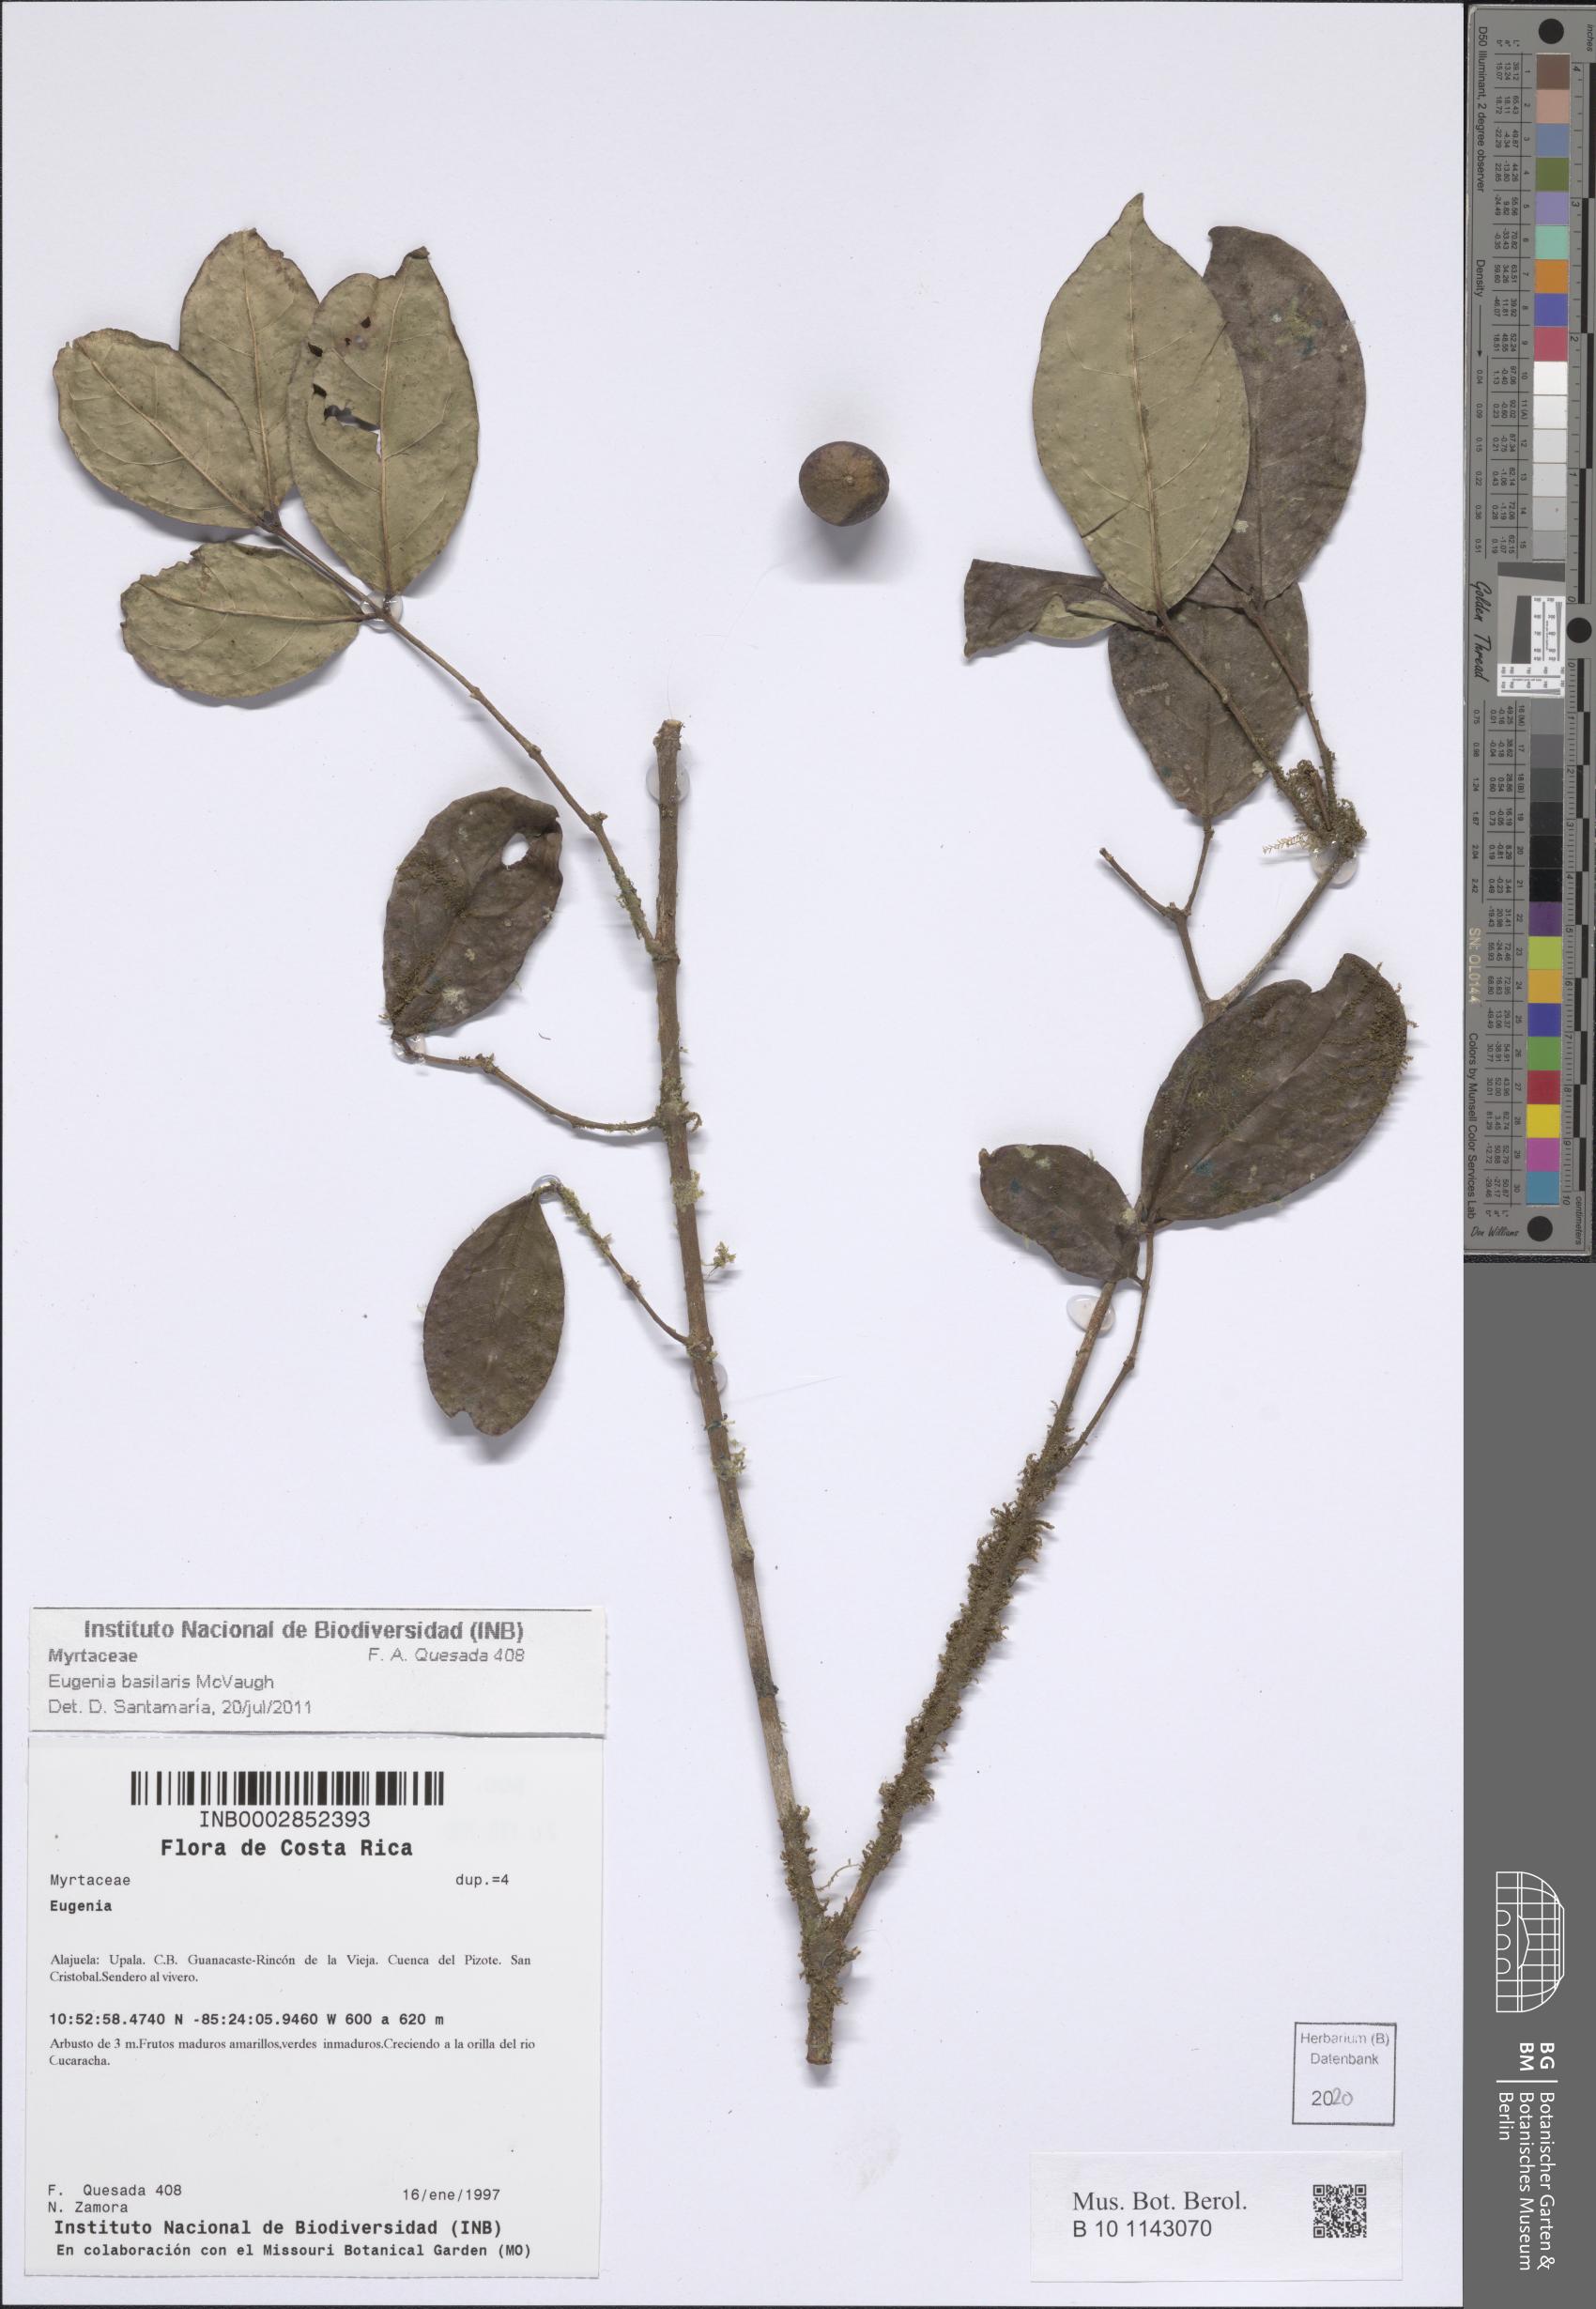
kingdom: Plantae
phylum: Tracheophyta
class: Magnoliopsida
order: Myrtales
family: Myrtaceae
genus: Eugenia
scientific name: Eugenia basilaris
